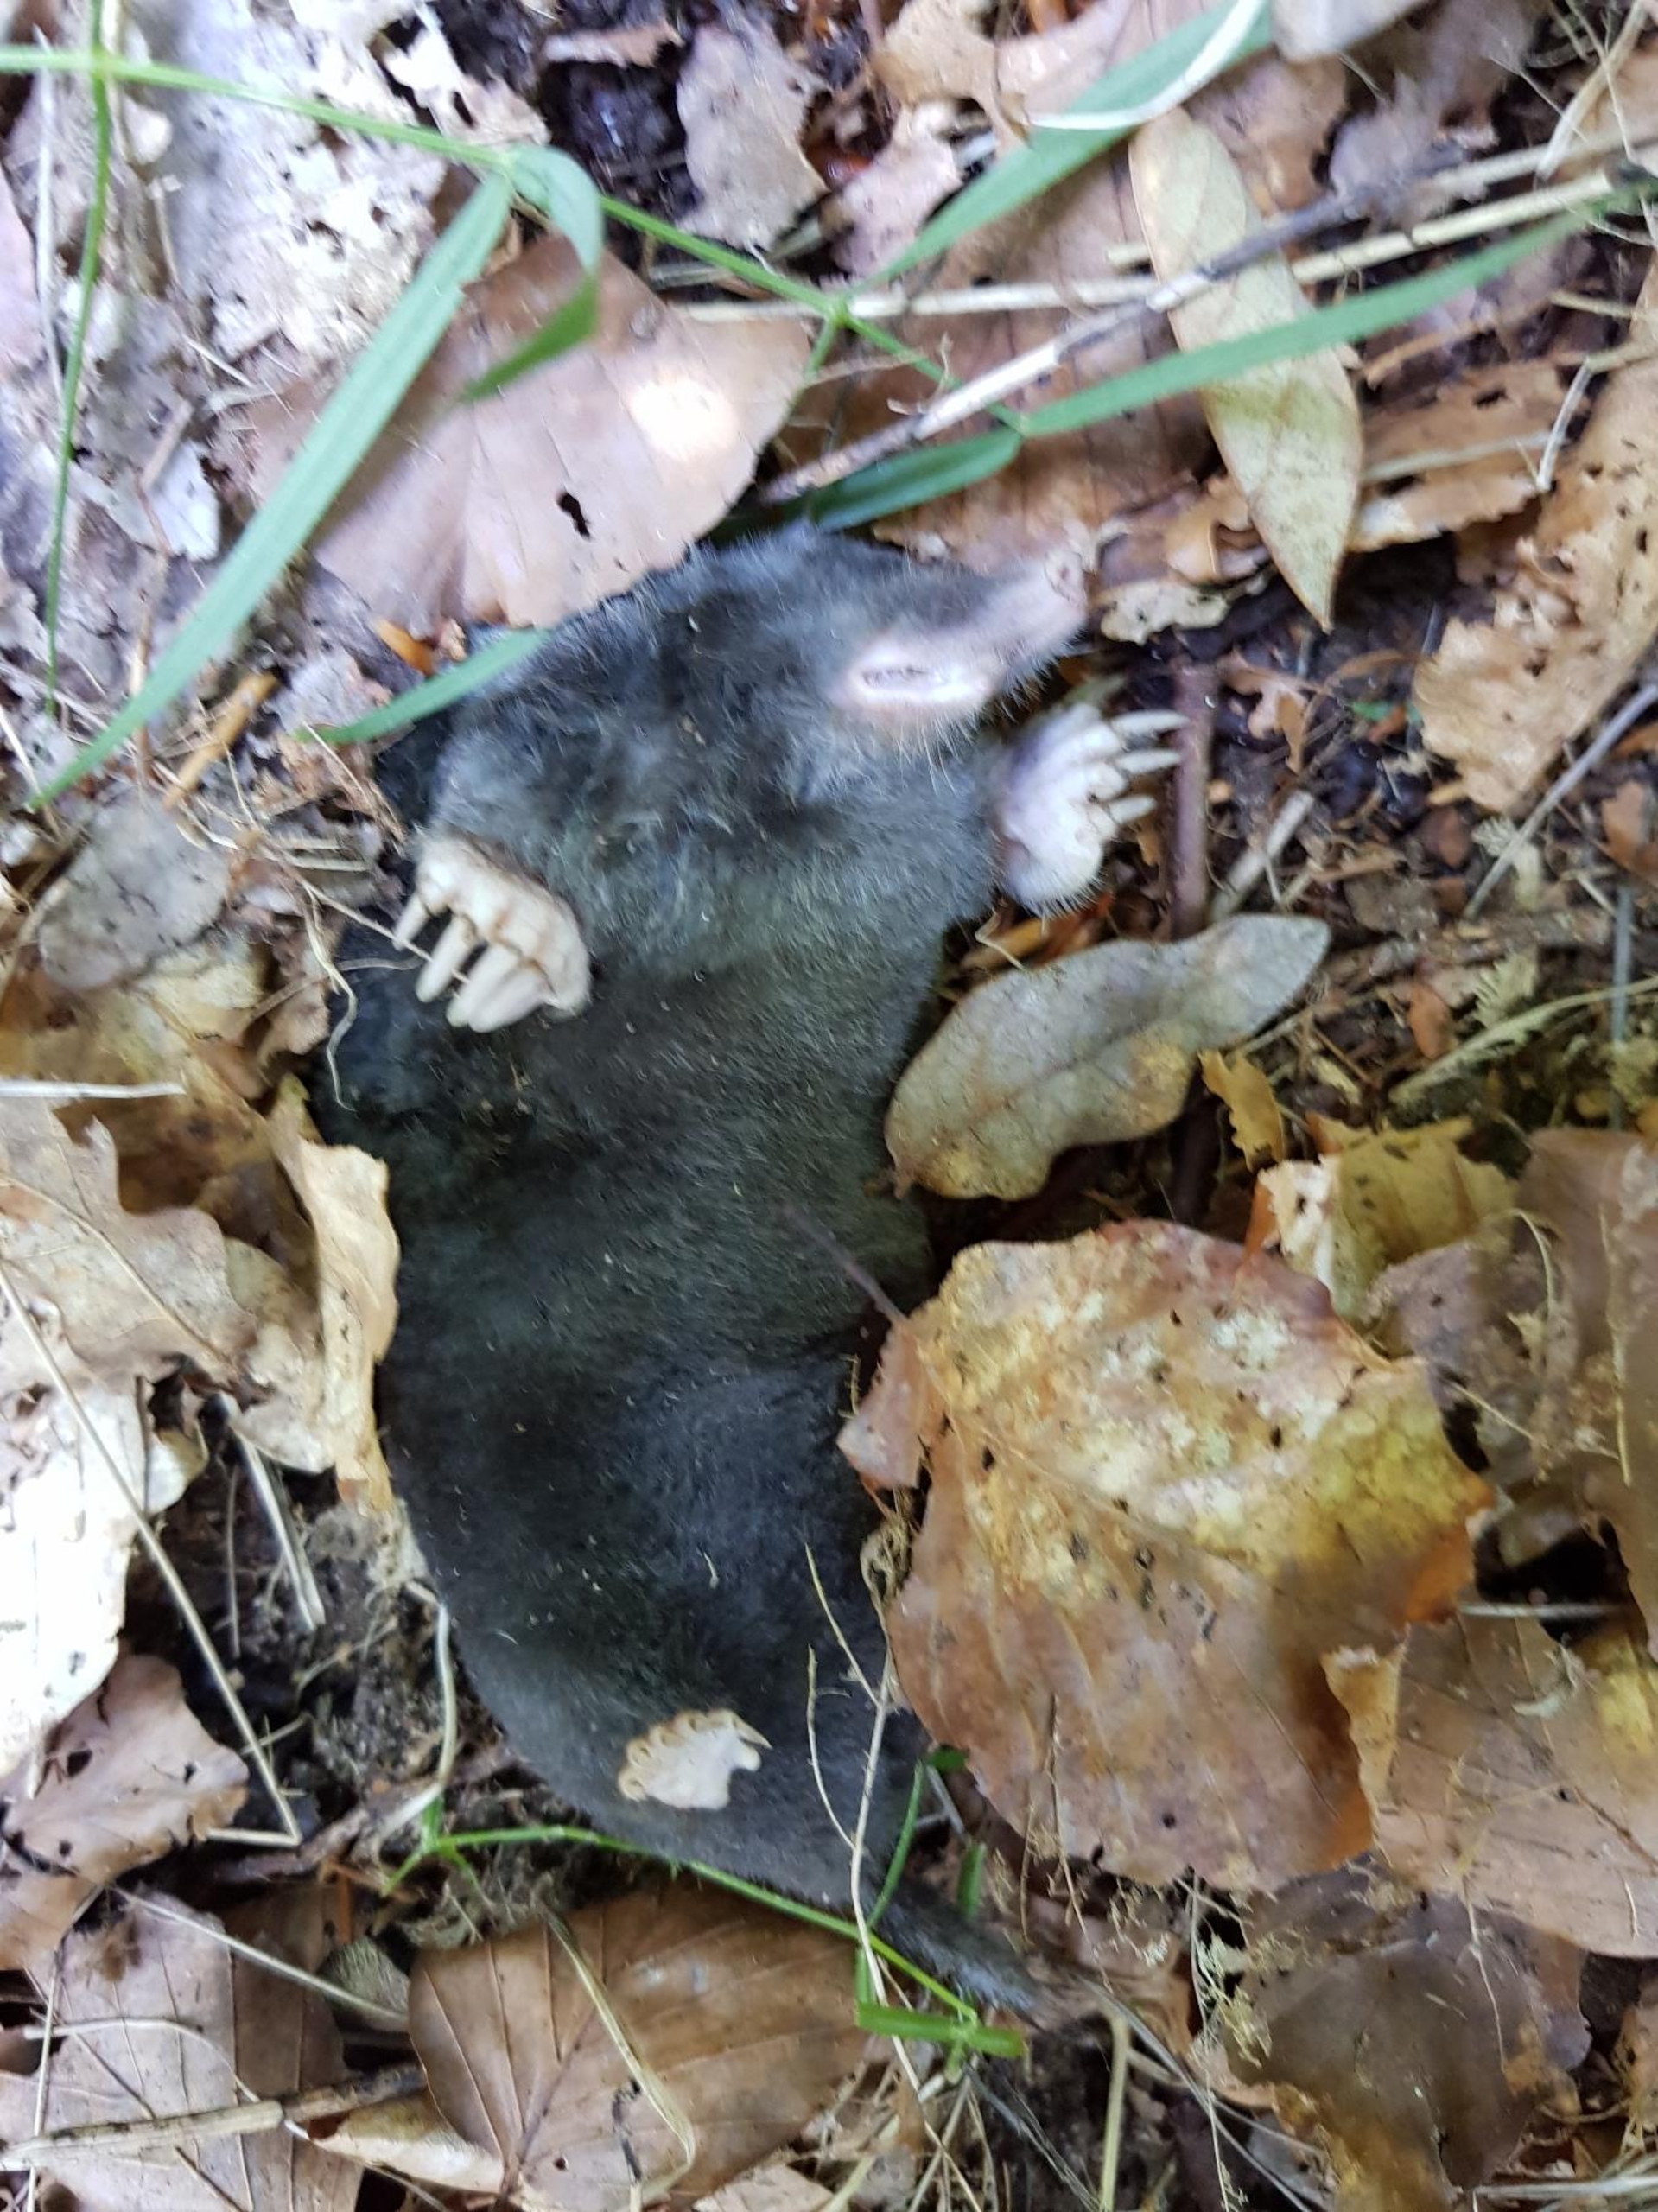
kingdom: Animalia
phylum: Chordata
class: Mammalia
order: Soricomorpha
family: Talpidae
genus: Talpa
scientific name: Talpa europaea
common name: Muldvarp
